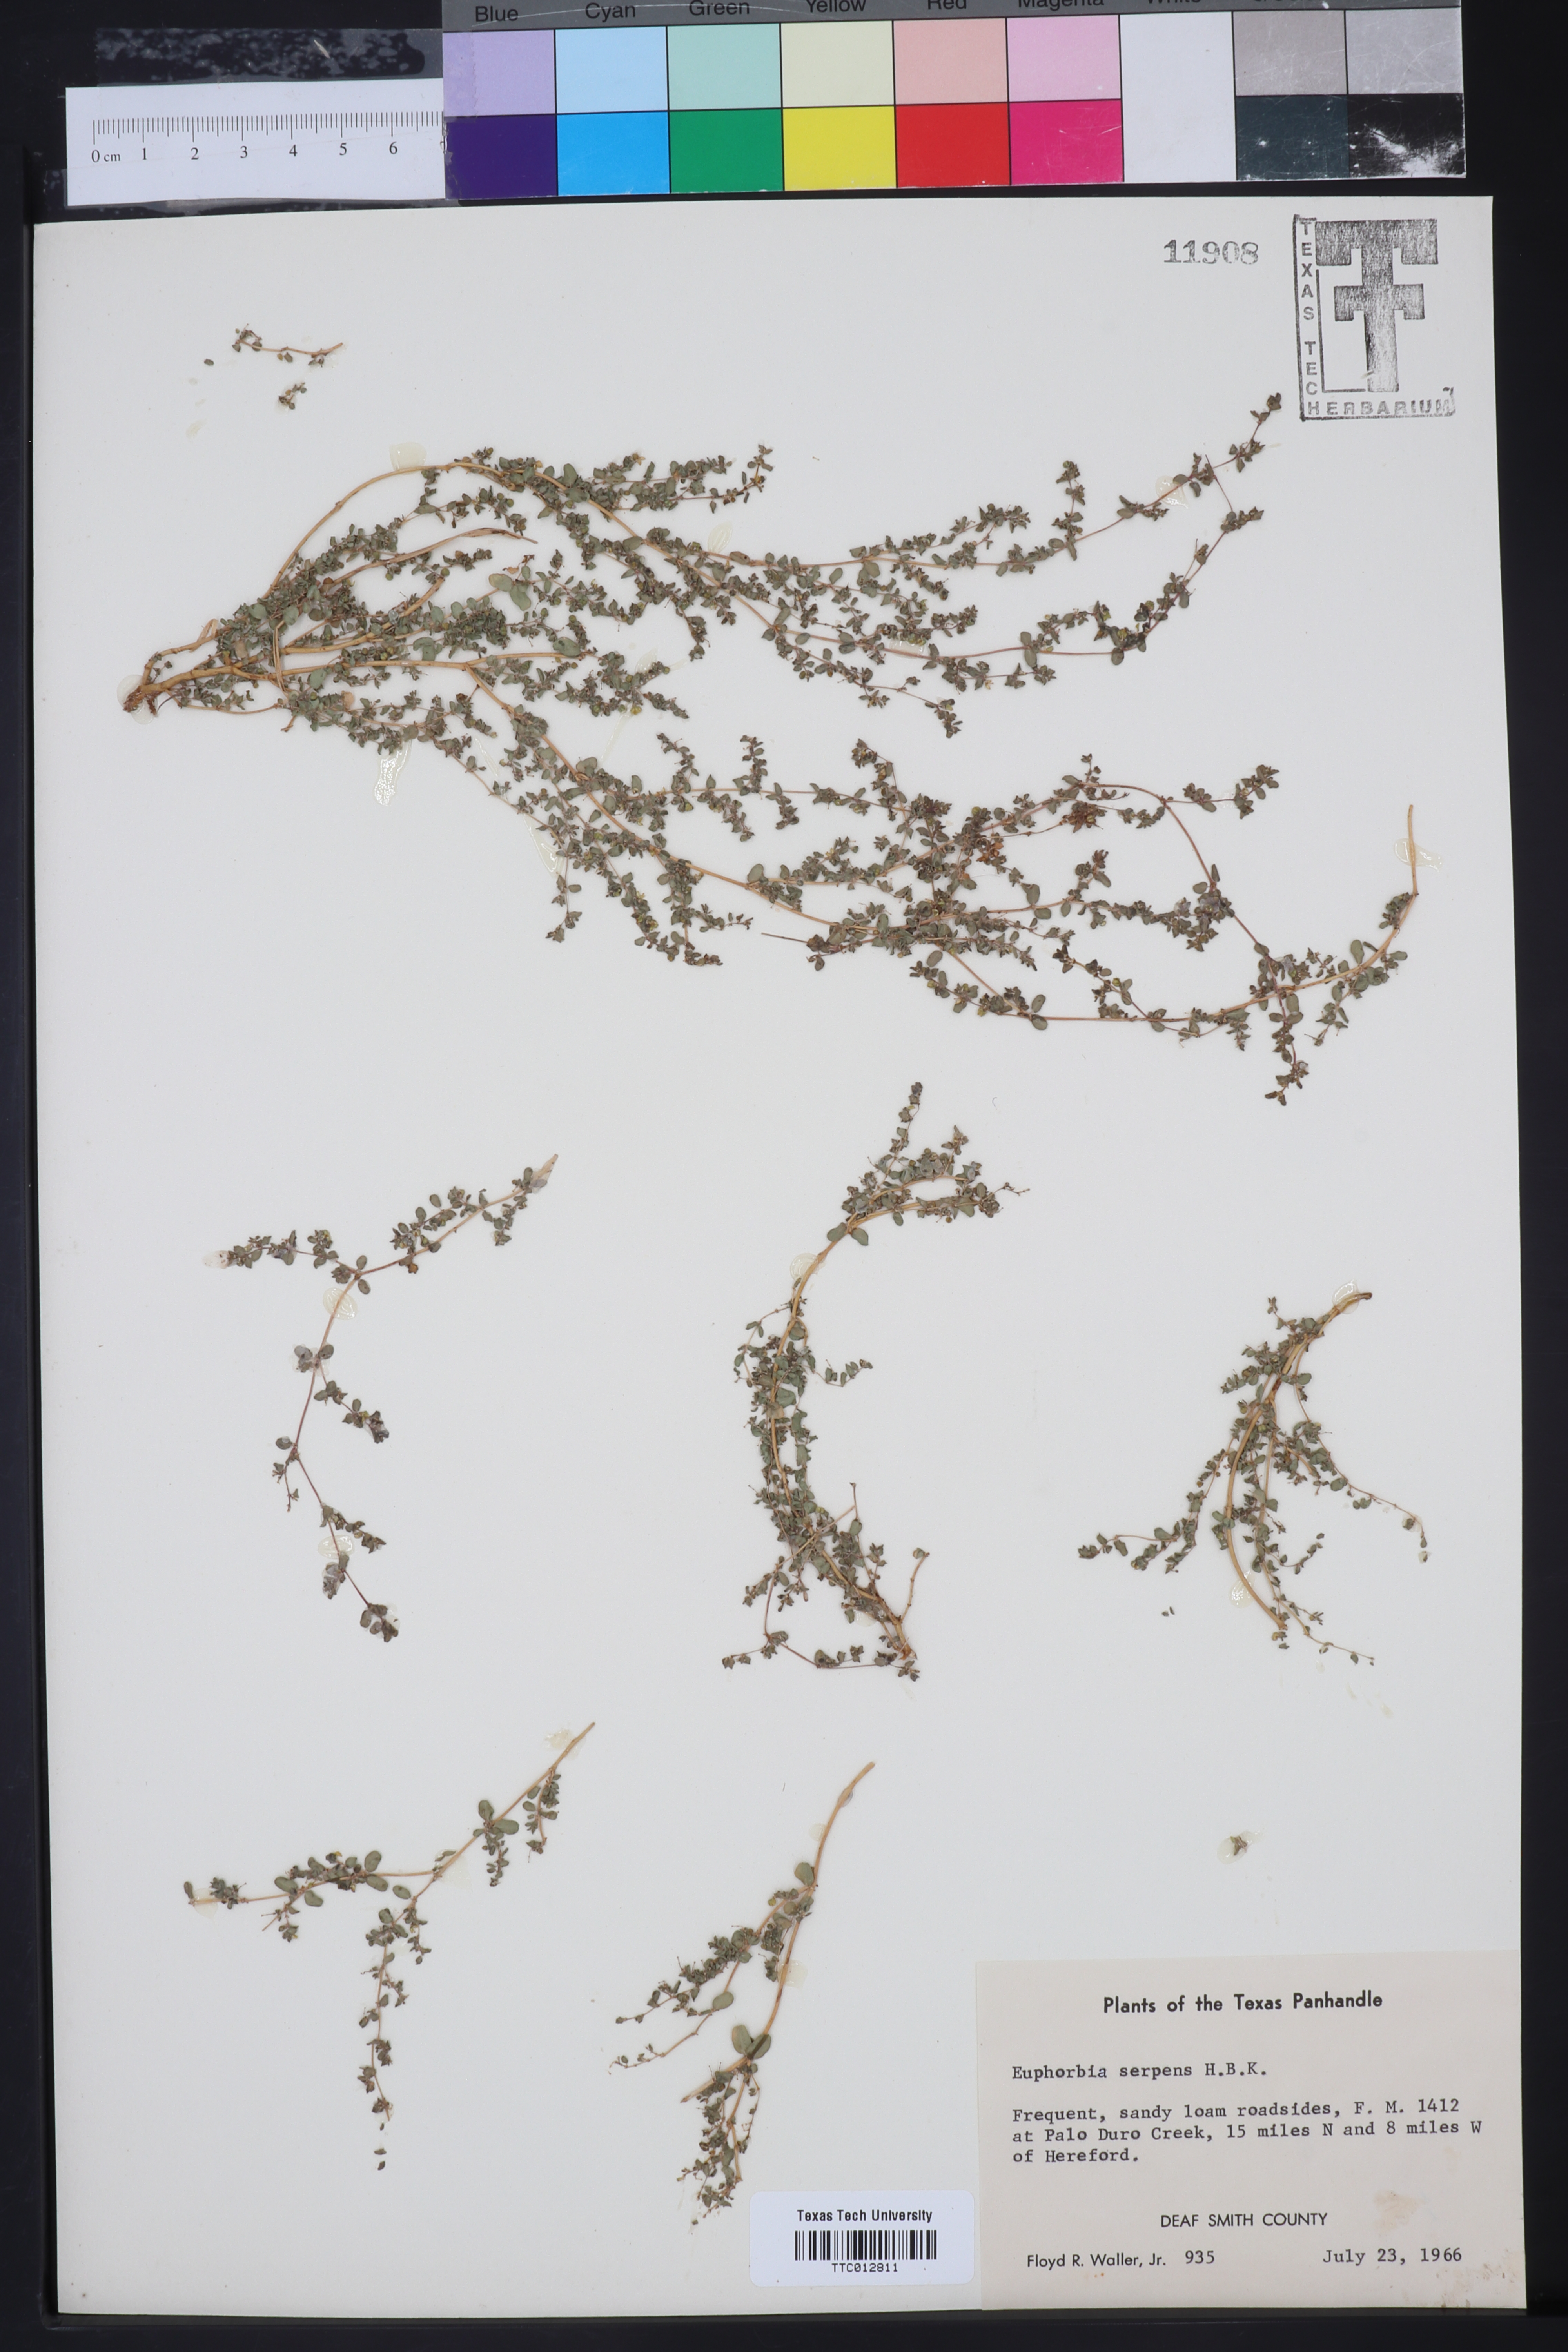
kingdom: Plantae
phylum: Tracheophyta
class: Magnoliopsida
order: Malpighiales
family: Euphorbiaceae
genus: Euphorbia
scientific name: Euphorbia serpens
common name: Matted sandmat
